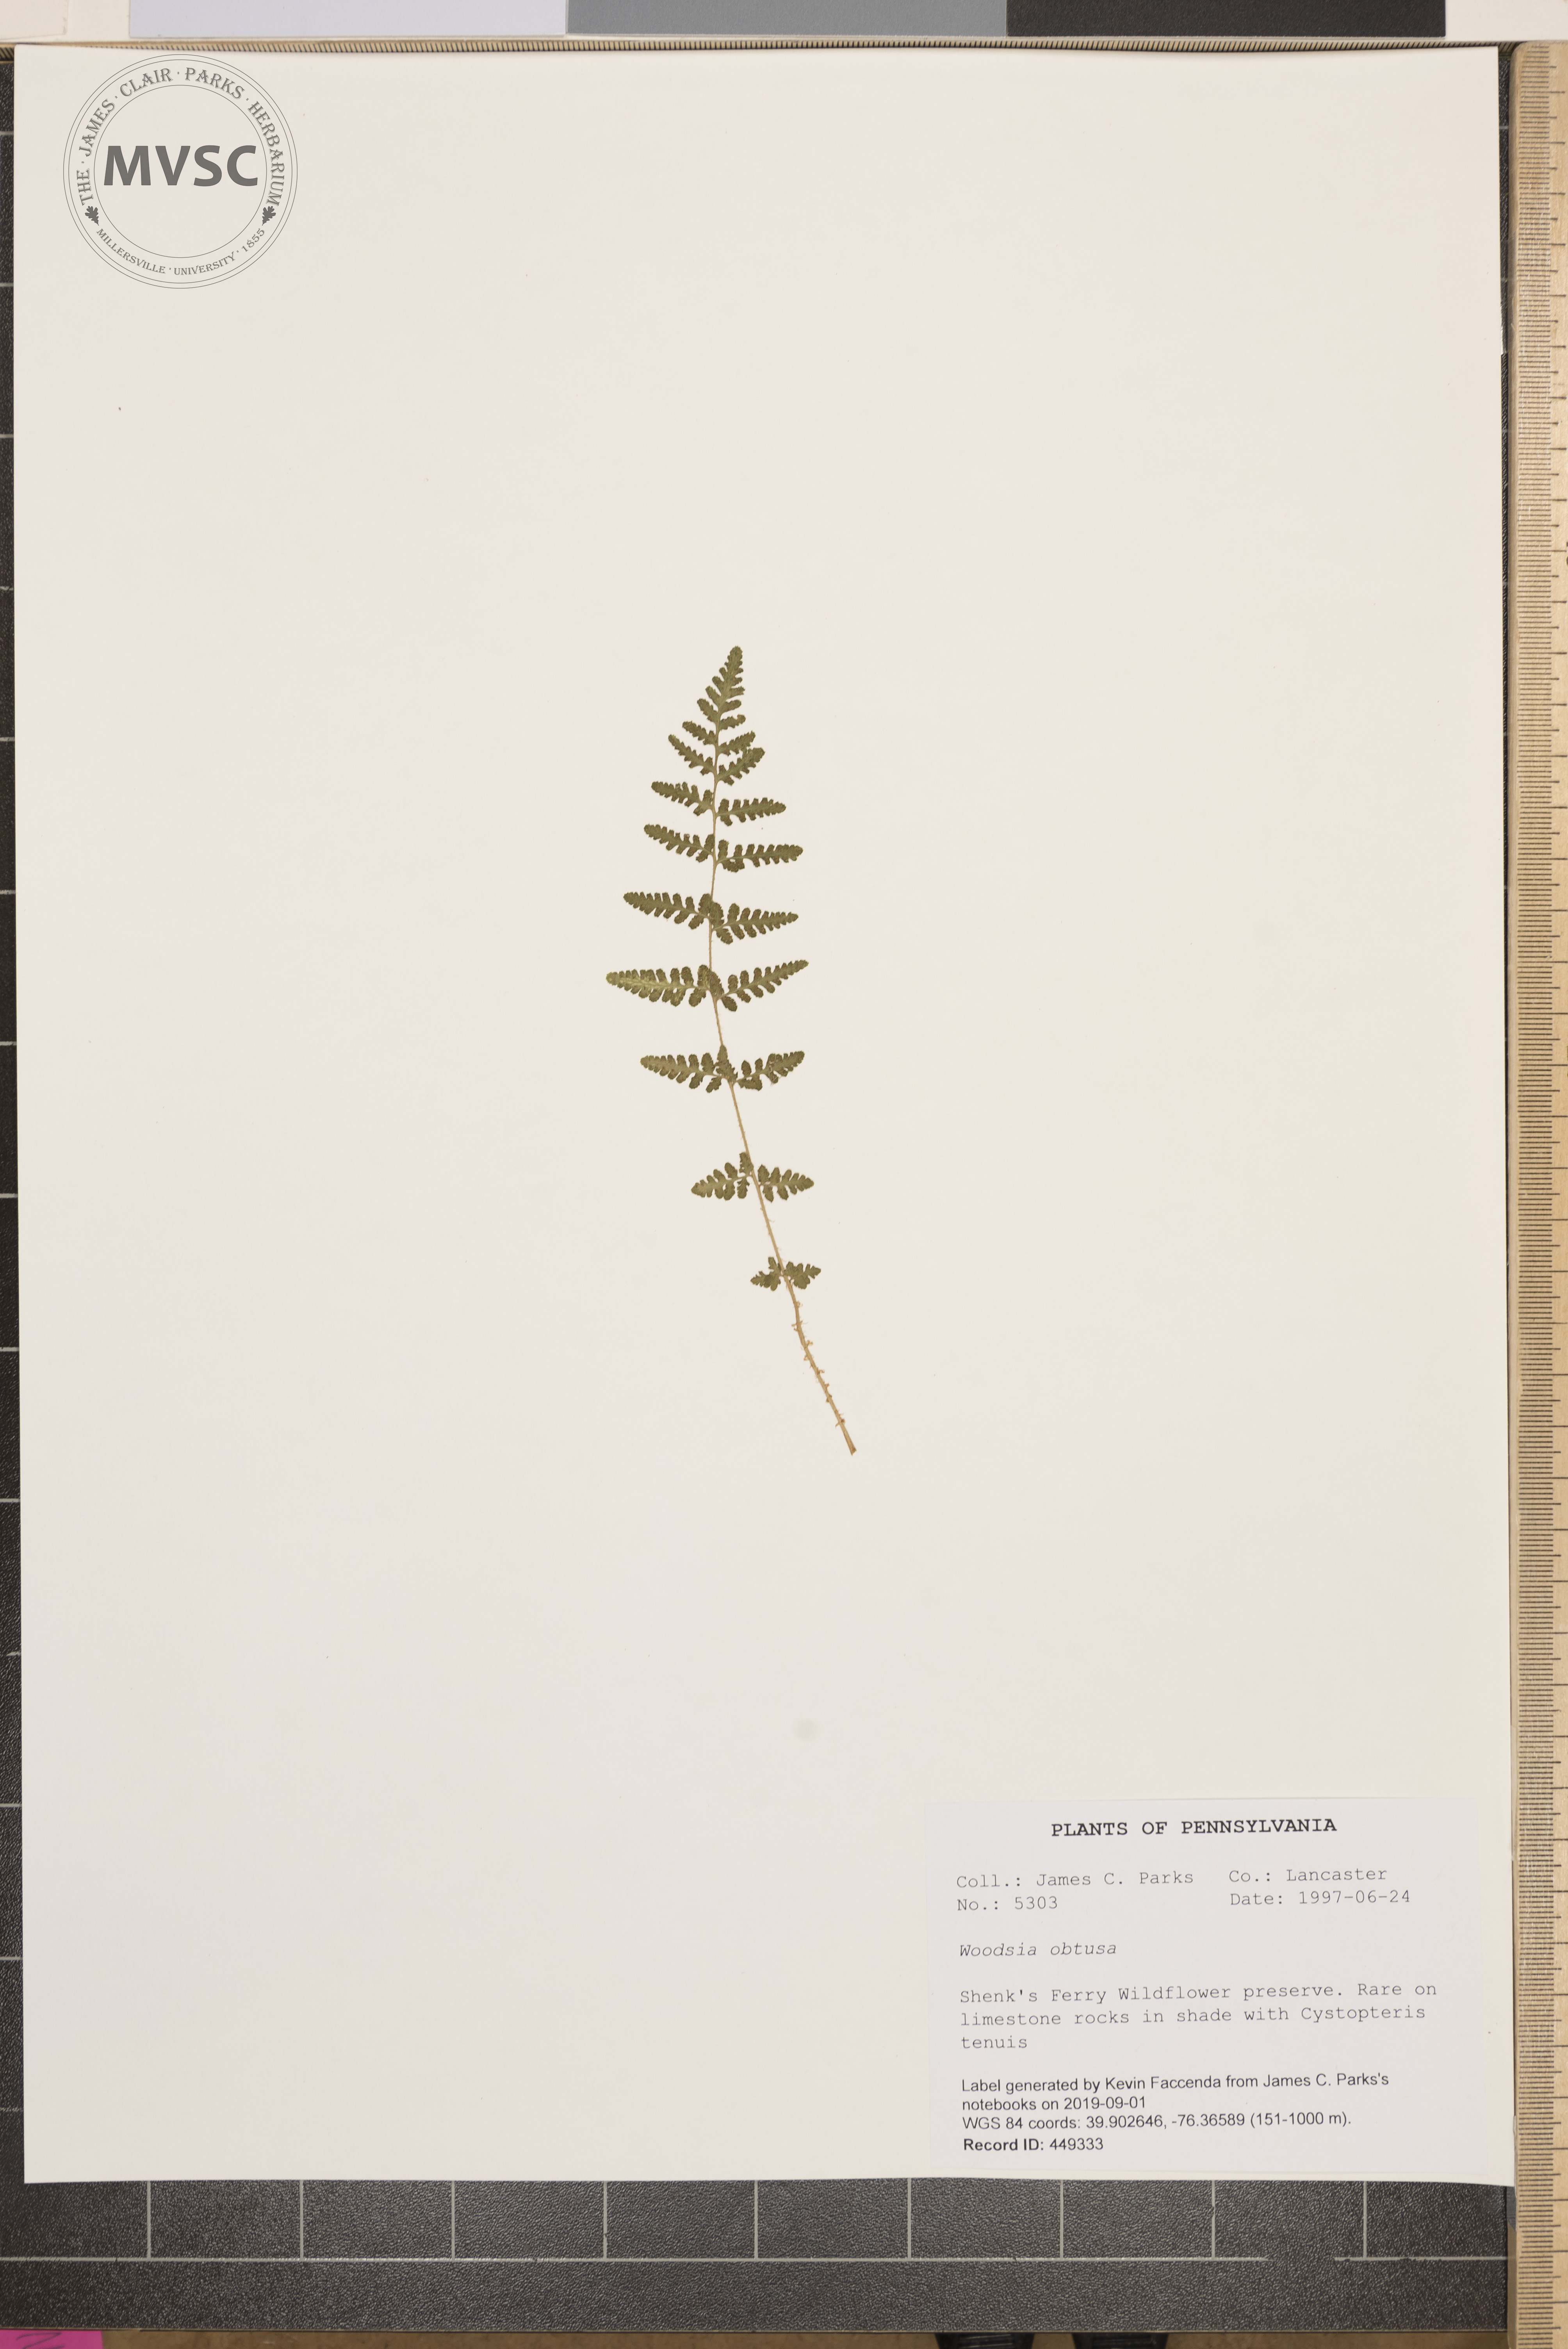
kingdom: Plantae
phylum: Tracheophyta
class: Polypodiopsida
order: Polypodiales
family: Woodsiaceae
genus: Physematium
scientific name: Physematium obtusum
